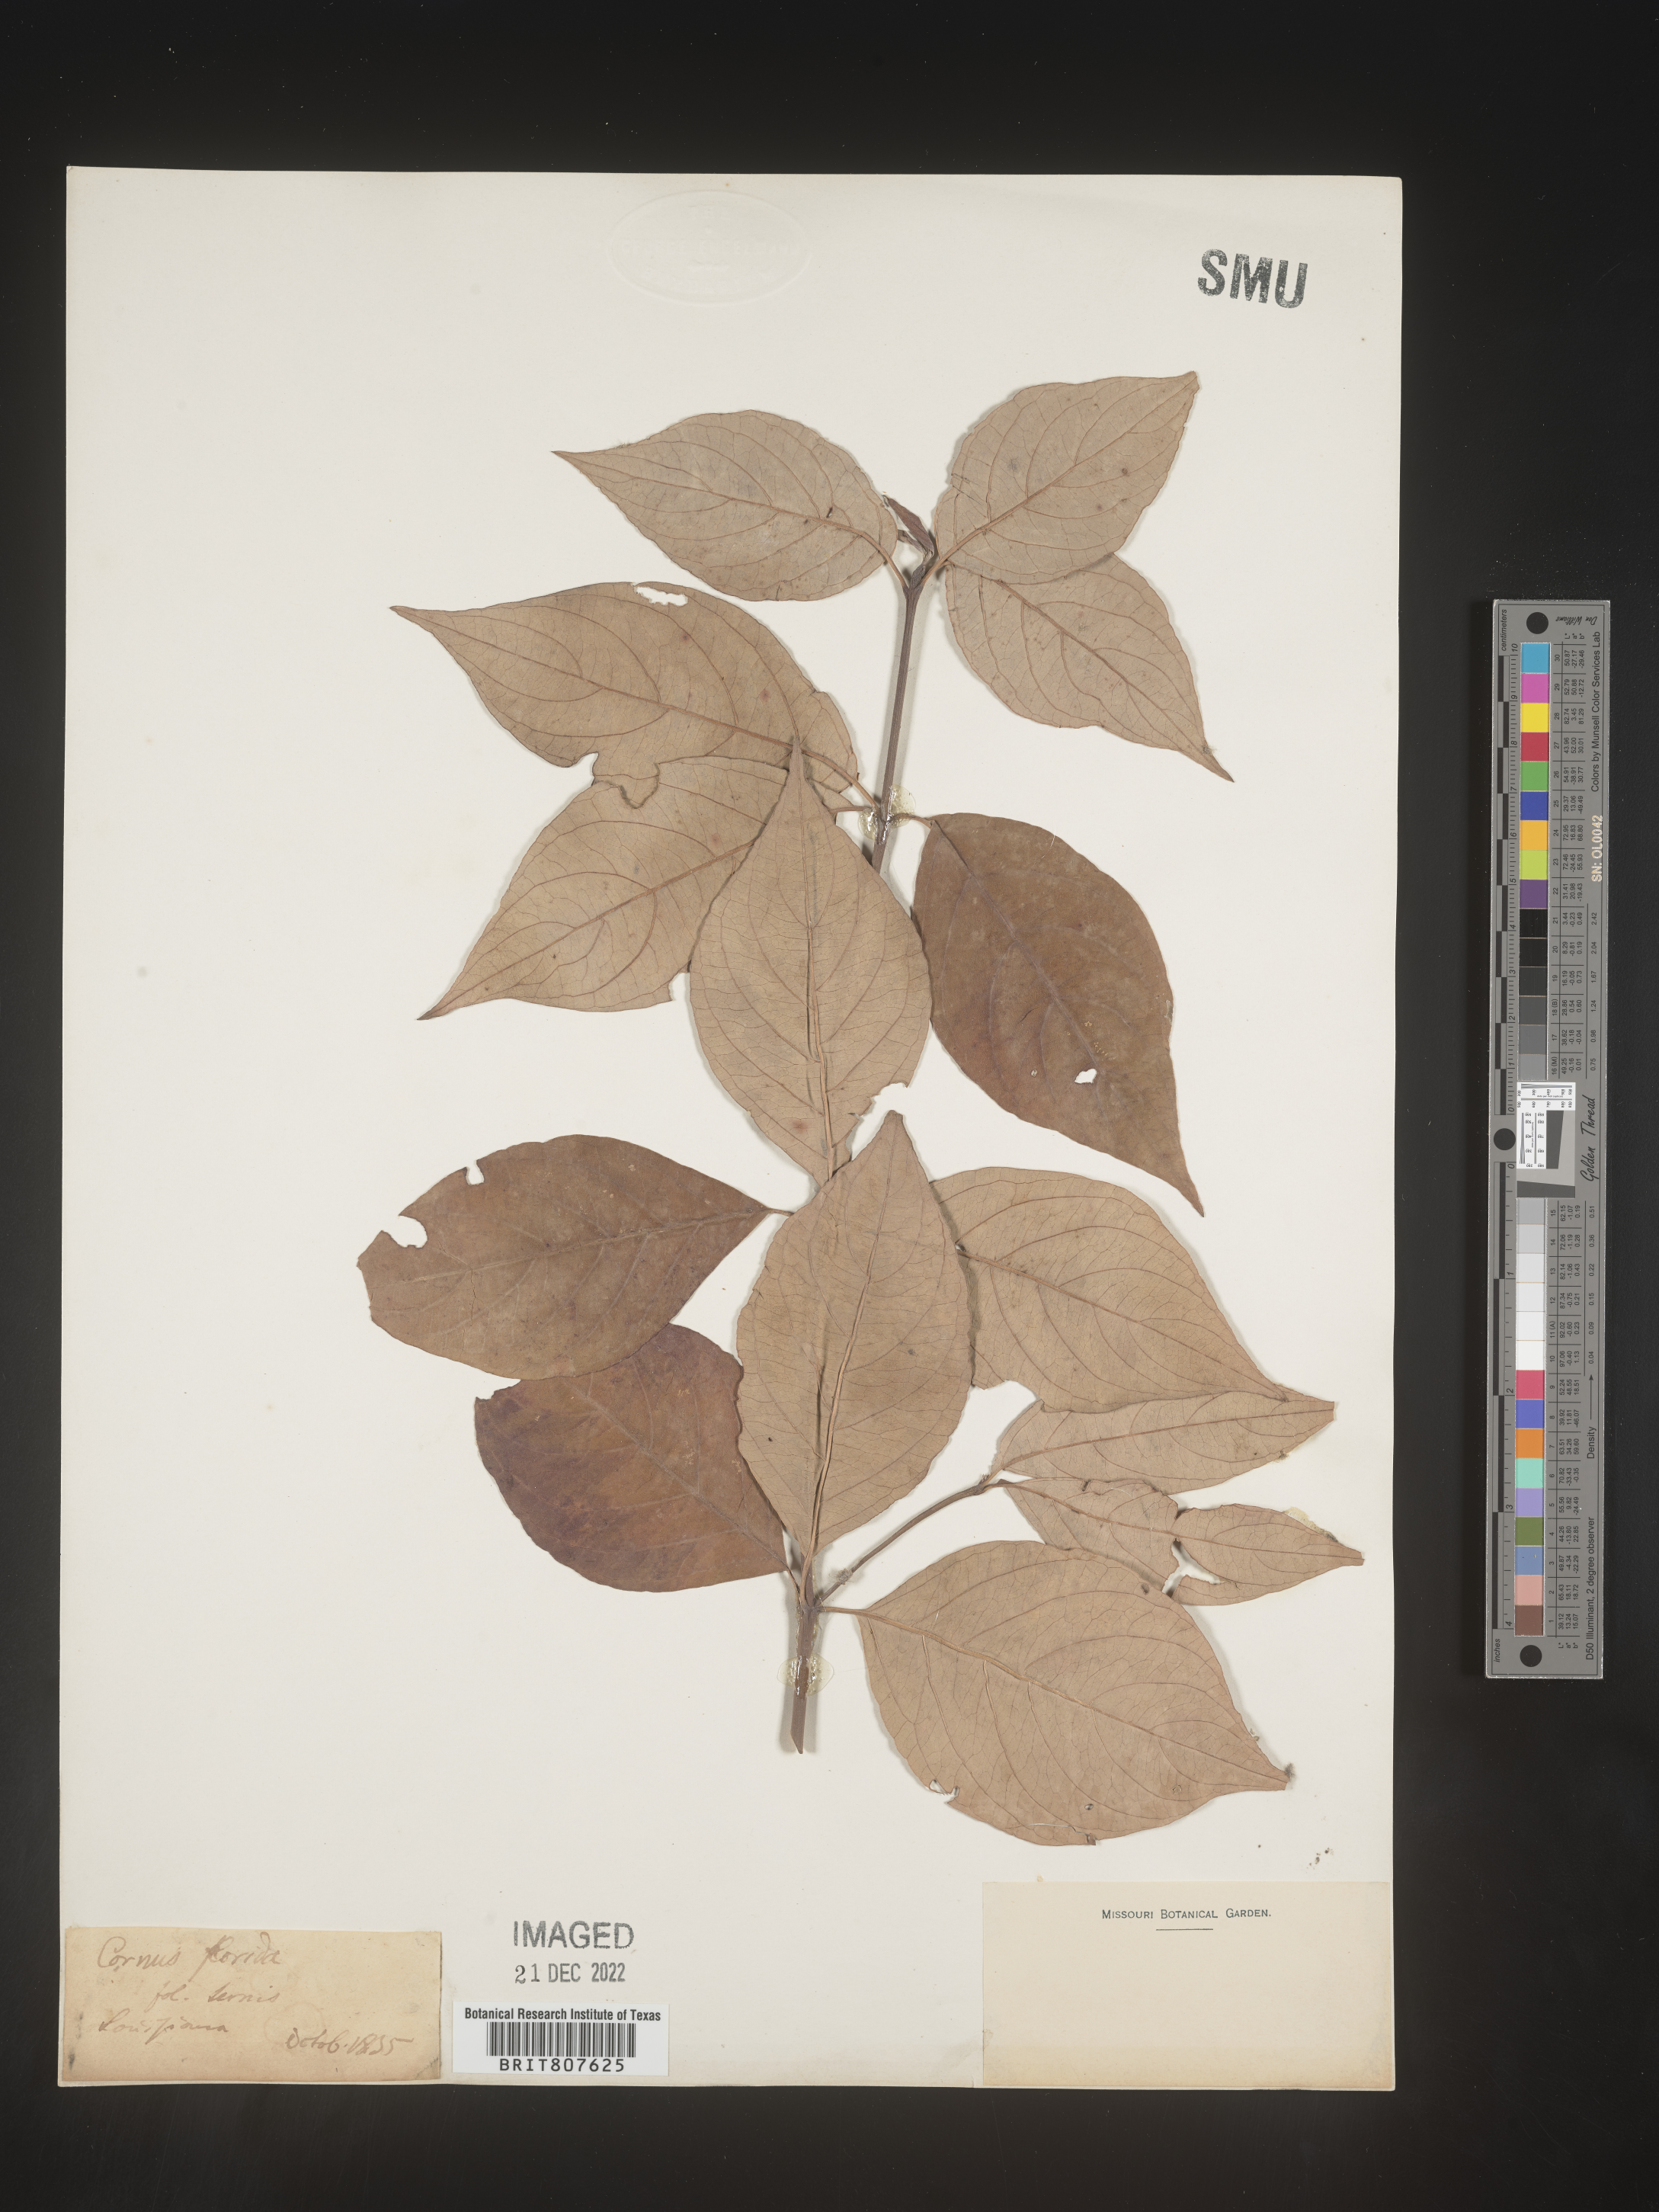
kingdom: Plantae
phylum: Tracheophyta
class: Magnoliopsida
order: Cornales
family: Cornaceae
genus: Cornus
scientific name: Cornus florida
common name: Flowering dogwood
